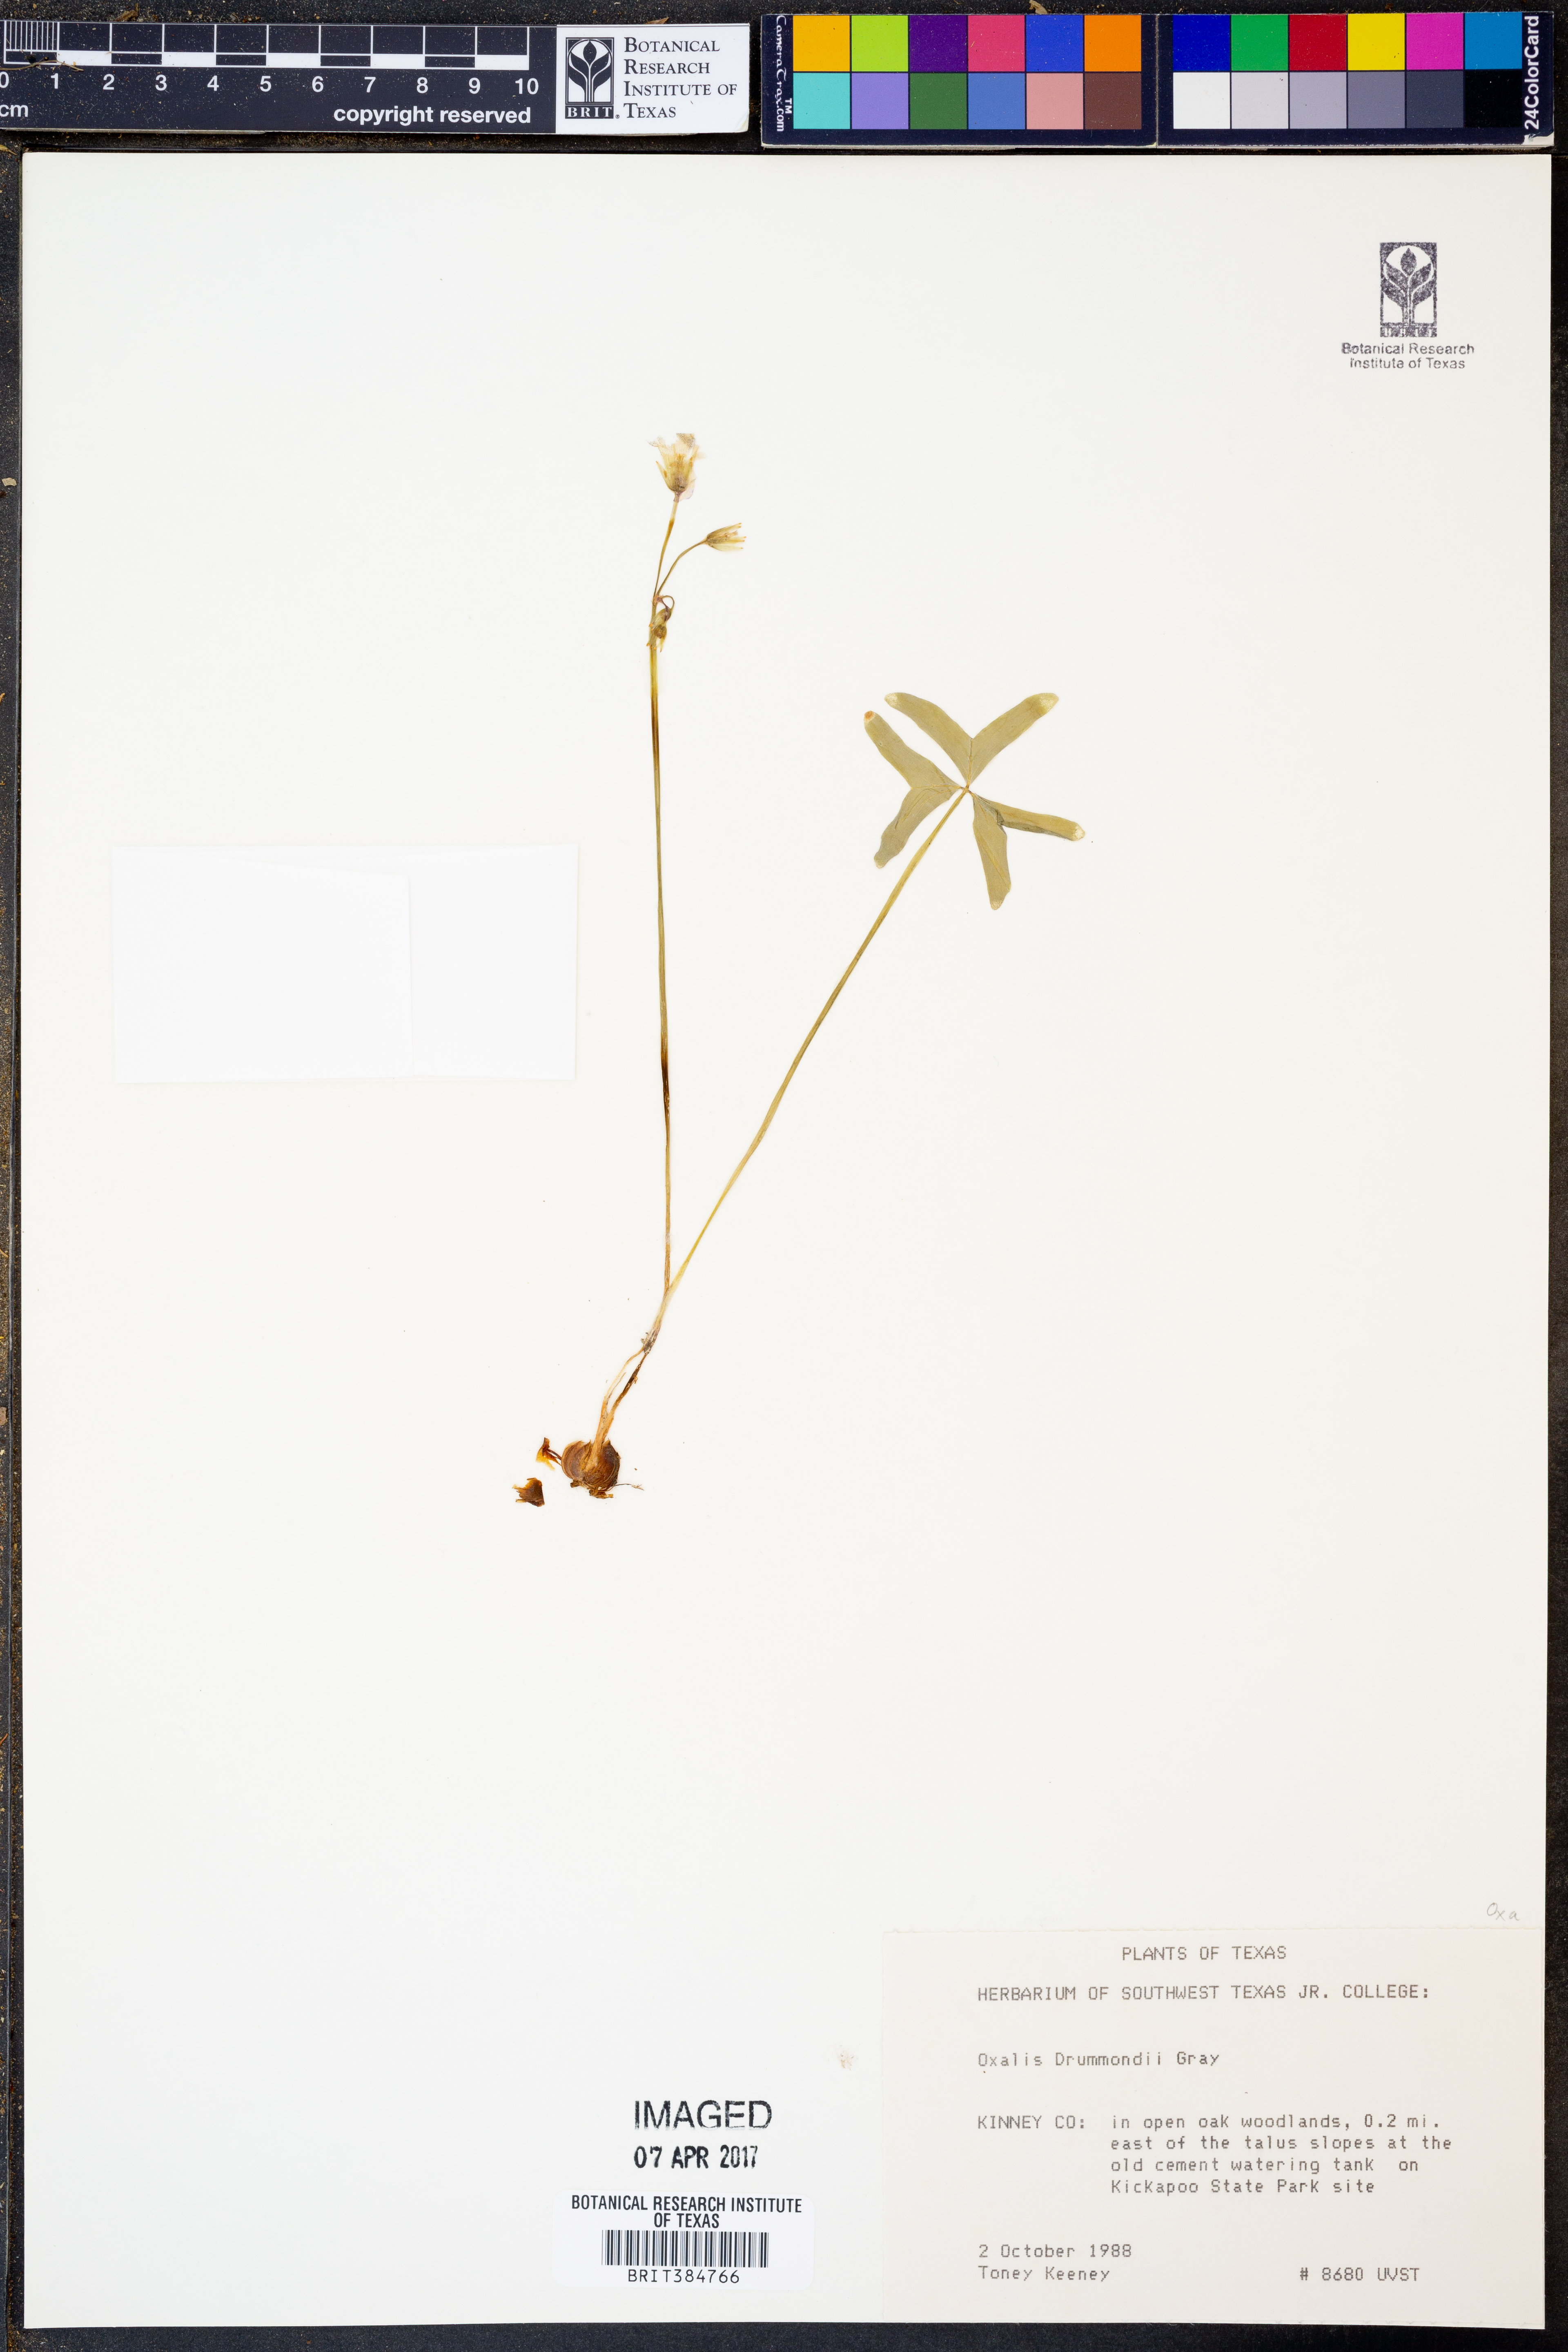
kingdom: Plantae
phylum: Tracheophyta
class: Magnoliopsida
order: Oxalidales
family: Oxalidaceae
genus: Oxalis
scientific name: Oxalis drummondii
